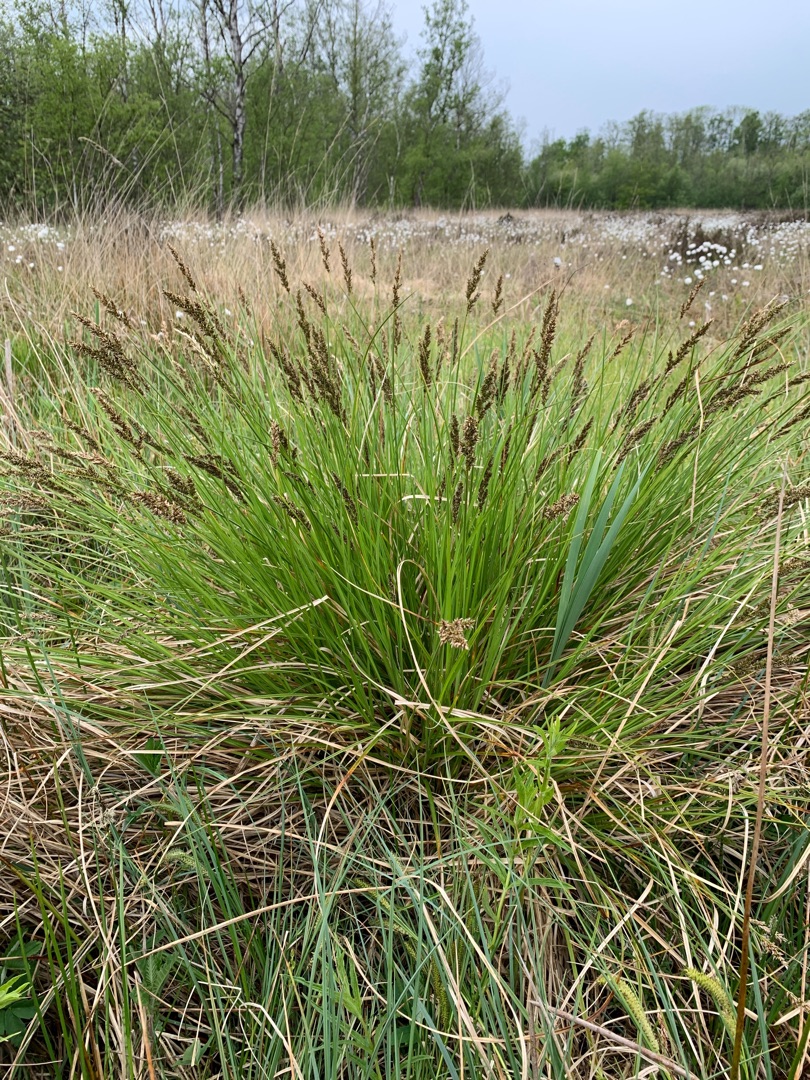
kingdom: Plantae
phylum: Tracheophyta
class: Liliopsida
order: Poales
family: Cyperaceae
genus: Carex
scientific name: Carex paniculata
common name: Top-star
